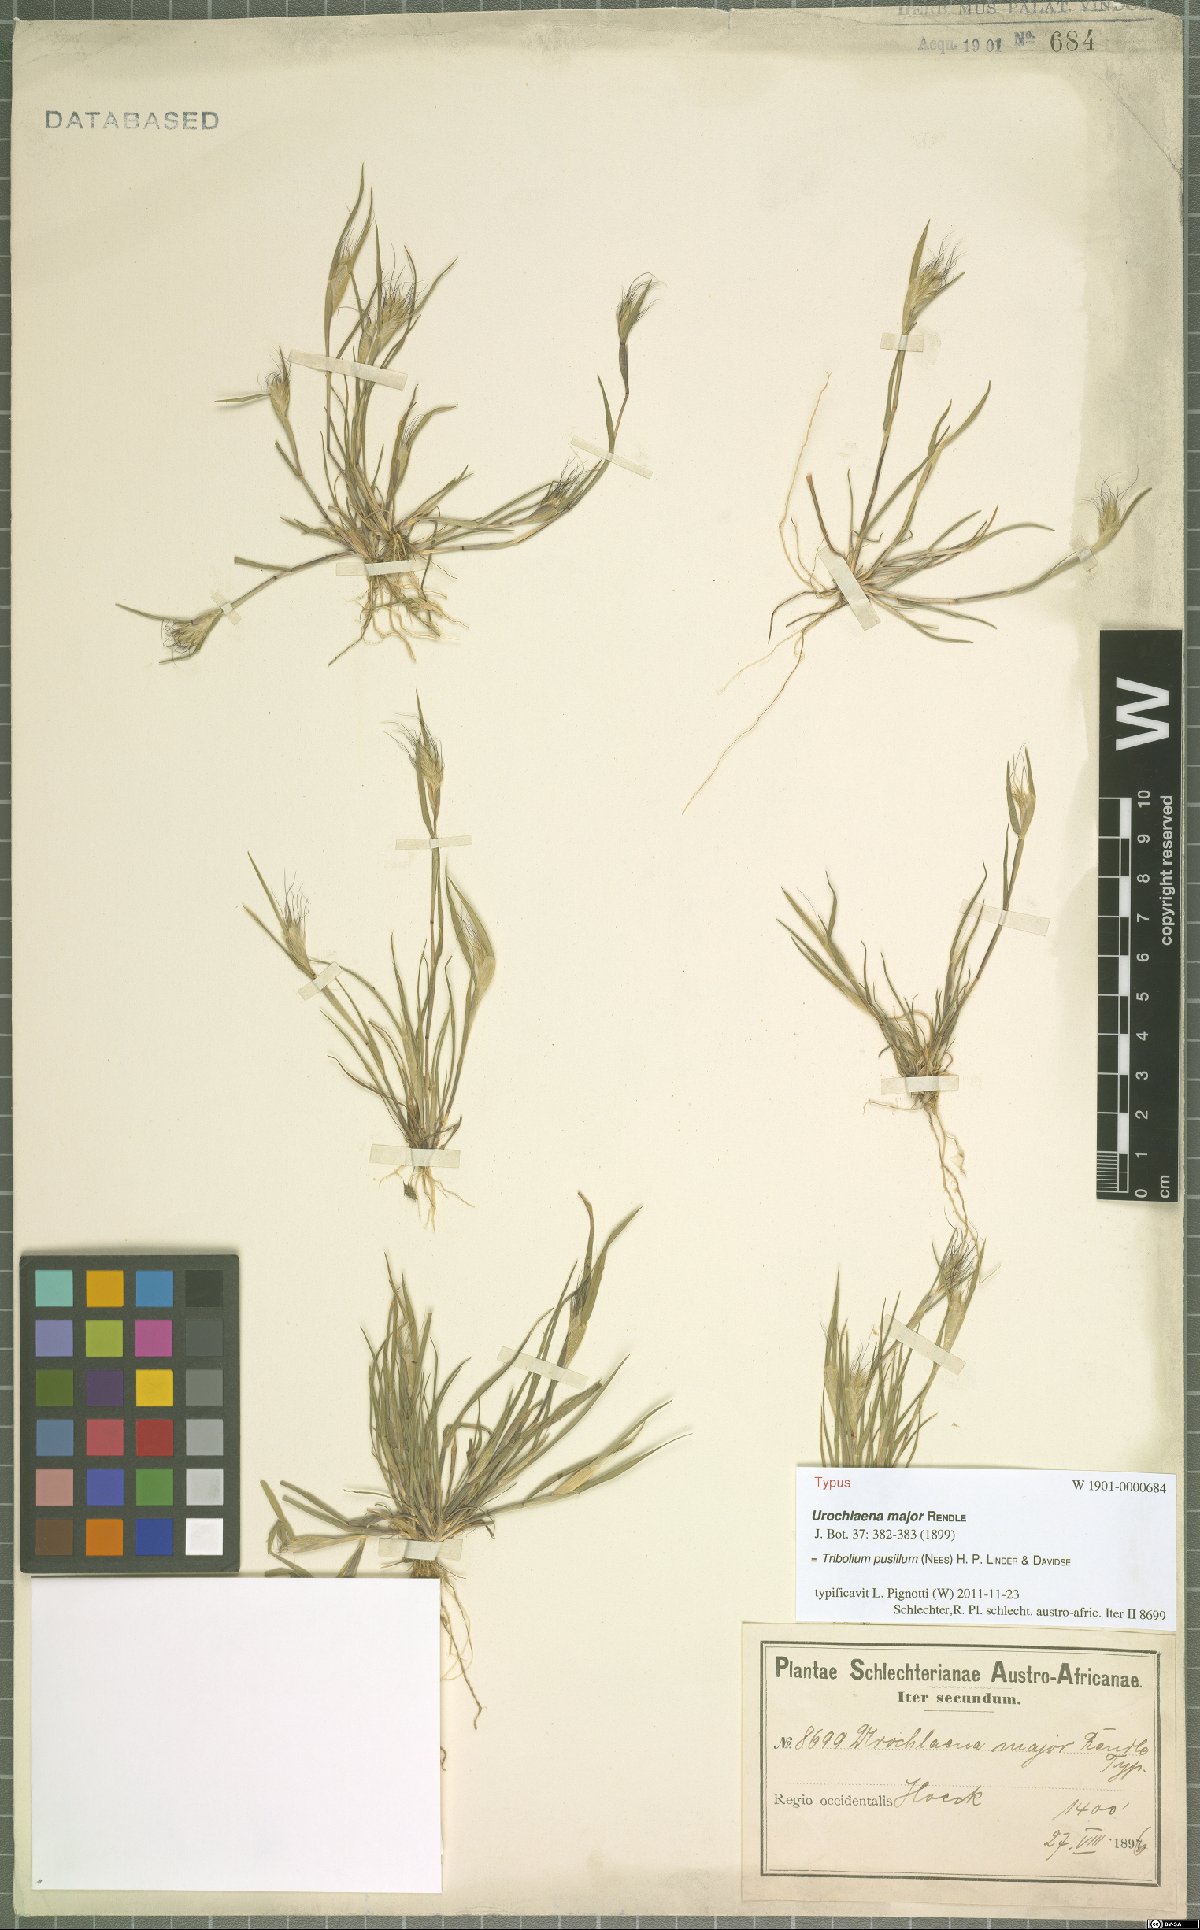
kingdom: Plantae
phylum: Tracheophyta
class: Liliopsida
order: Poales
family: Poaceae
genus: Tribolium
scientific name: Tribolium pusillum
